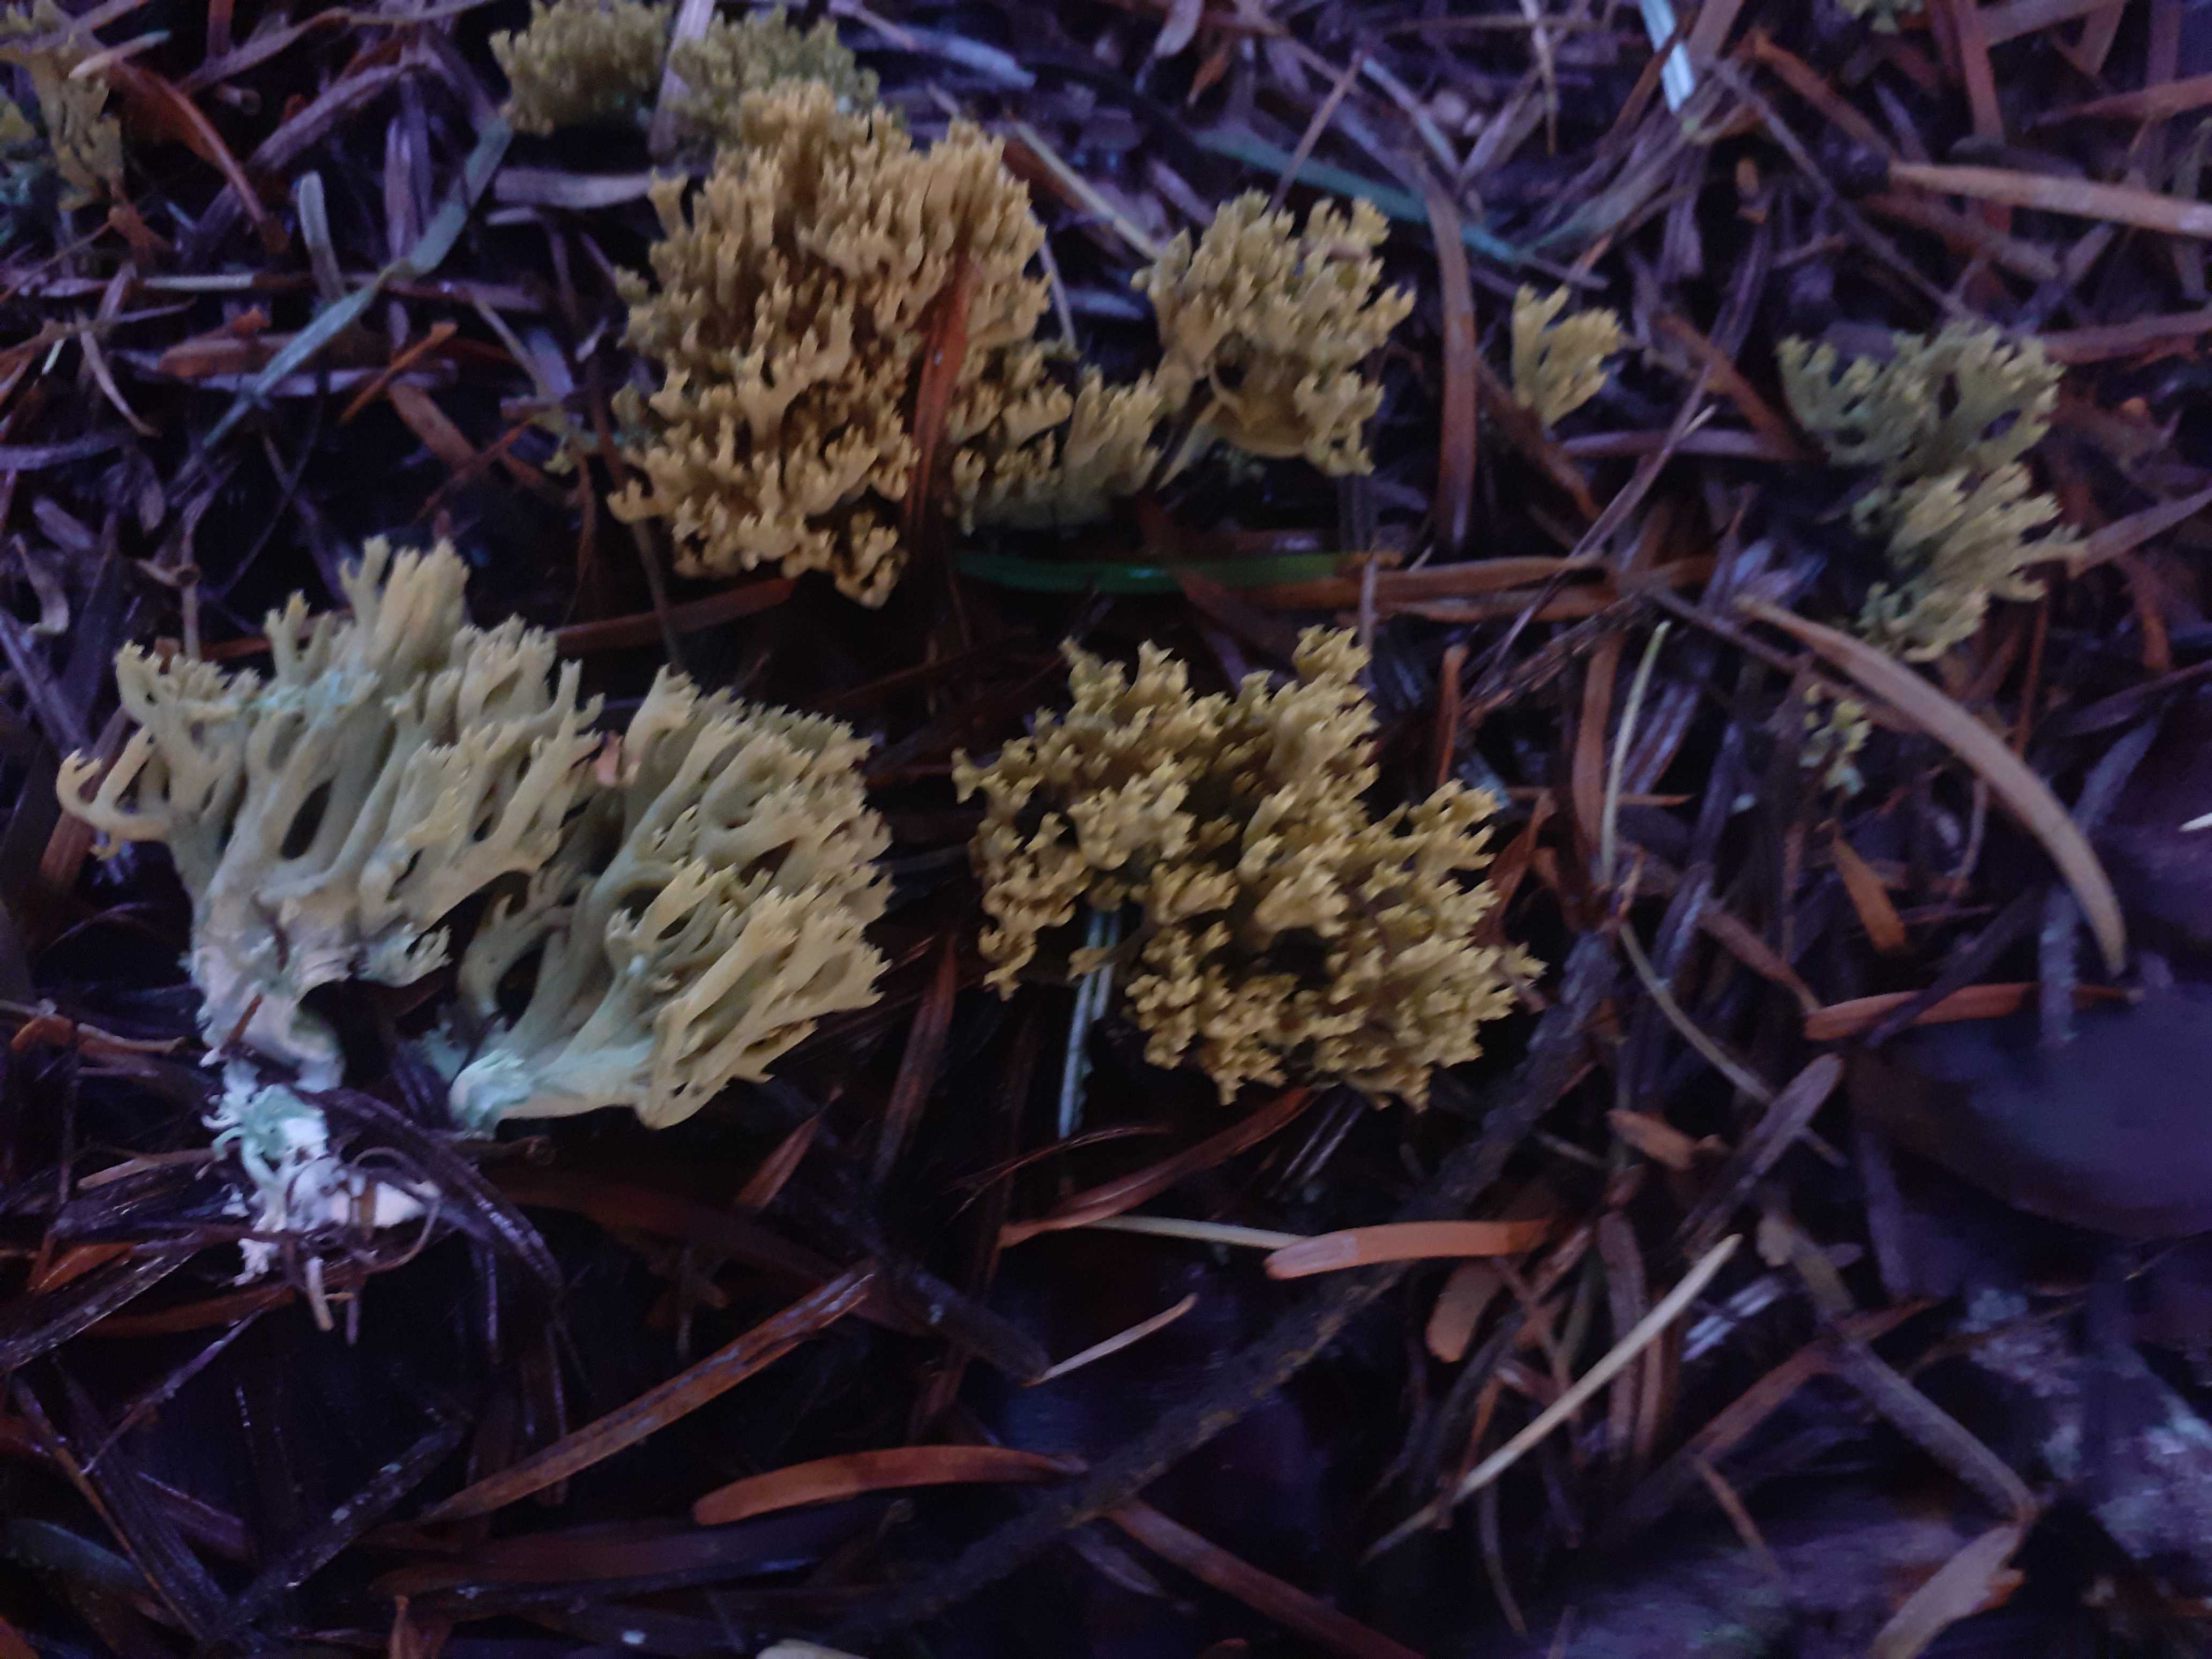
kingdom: Fungi
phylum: Basidiomycota
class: Agaricomycetes
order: Gomphales
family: Gomphaceae
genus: Phaeoclavulina
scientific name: Phaeoclavulina abietina
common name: gulgrøn koralsvamp
